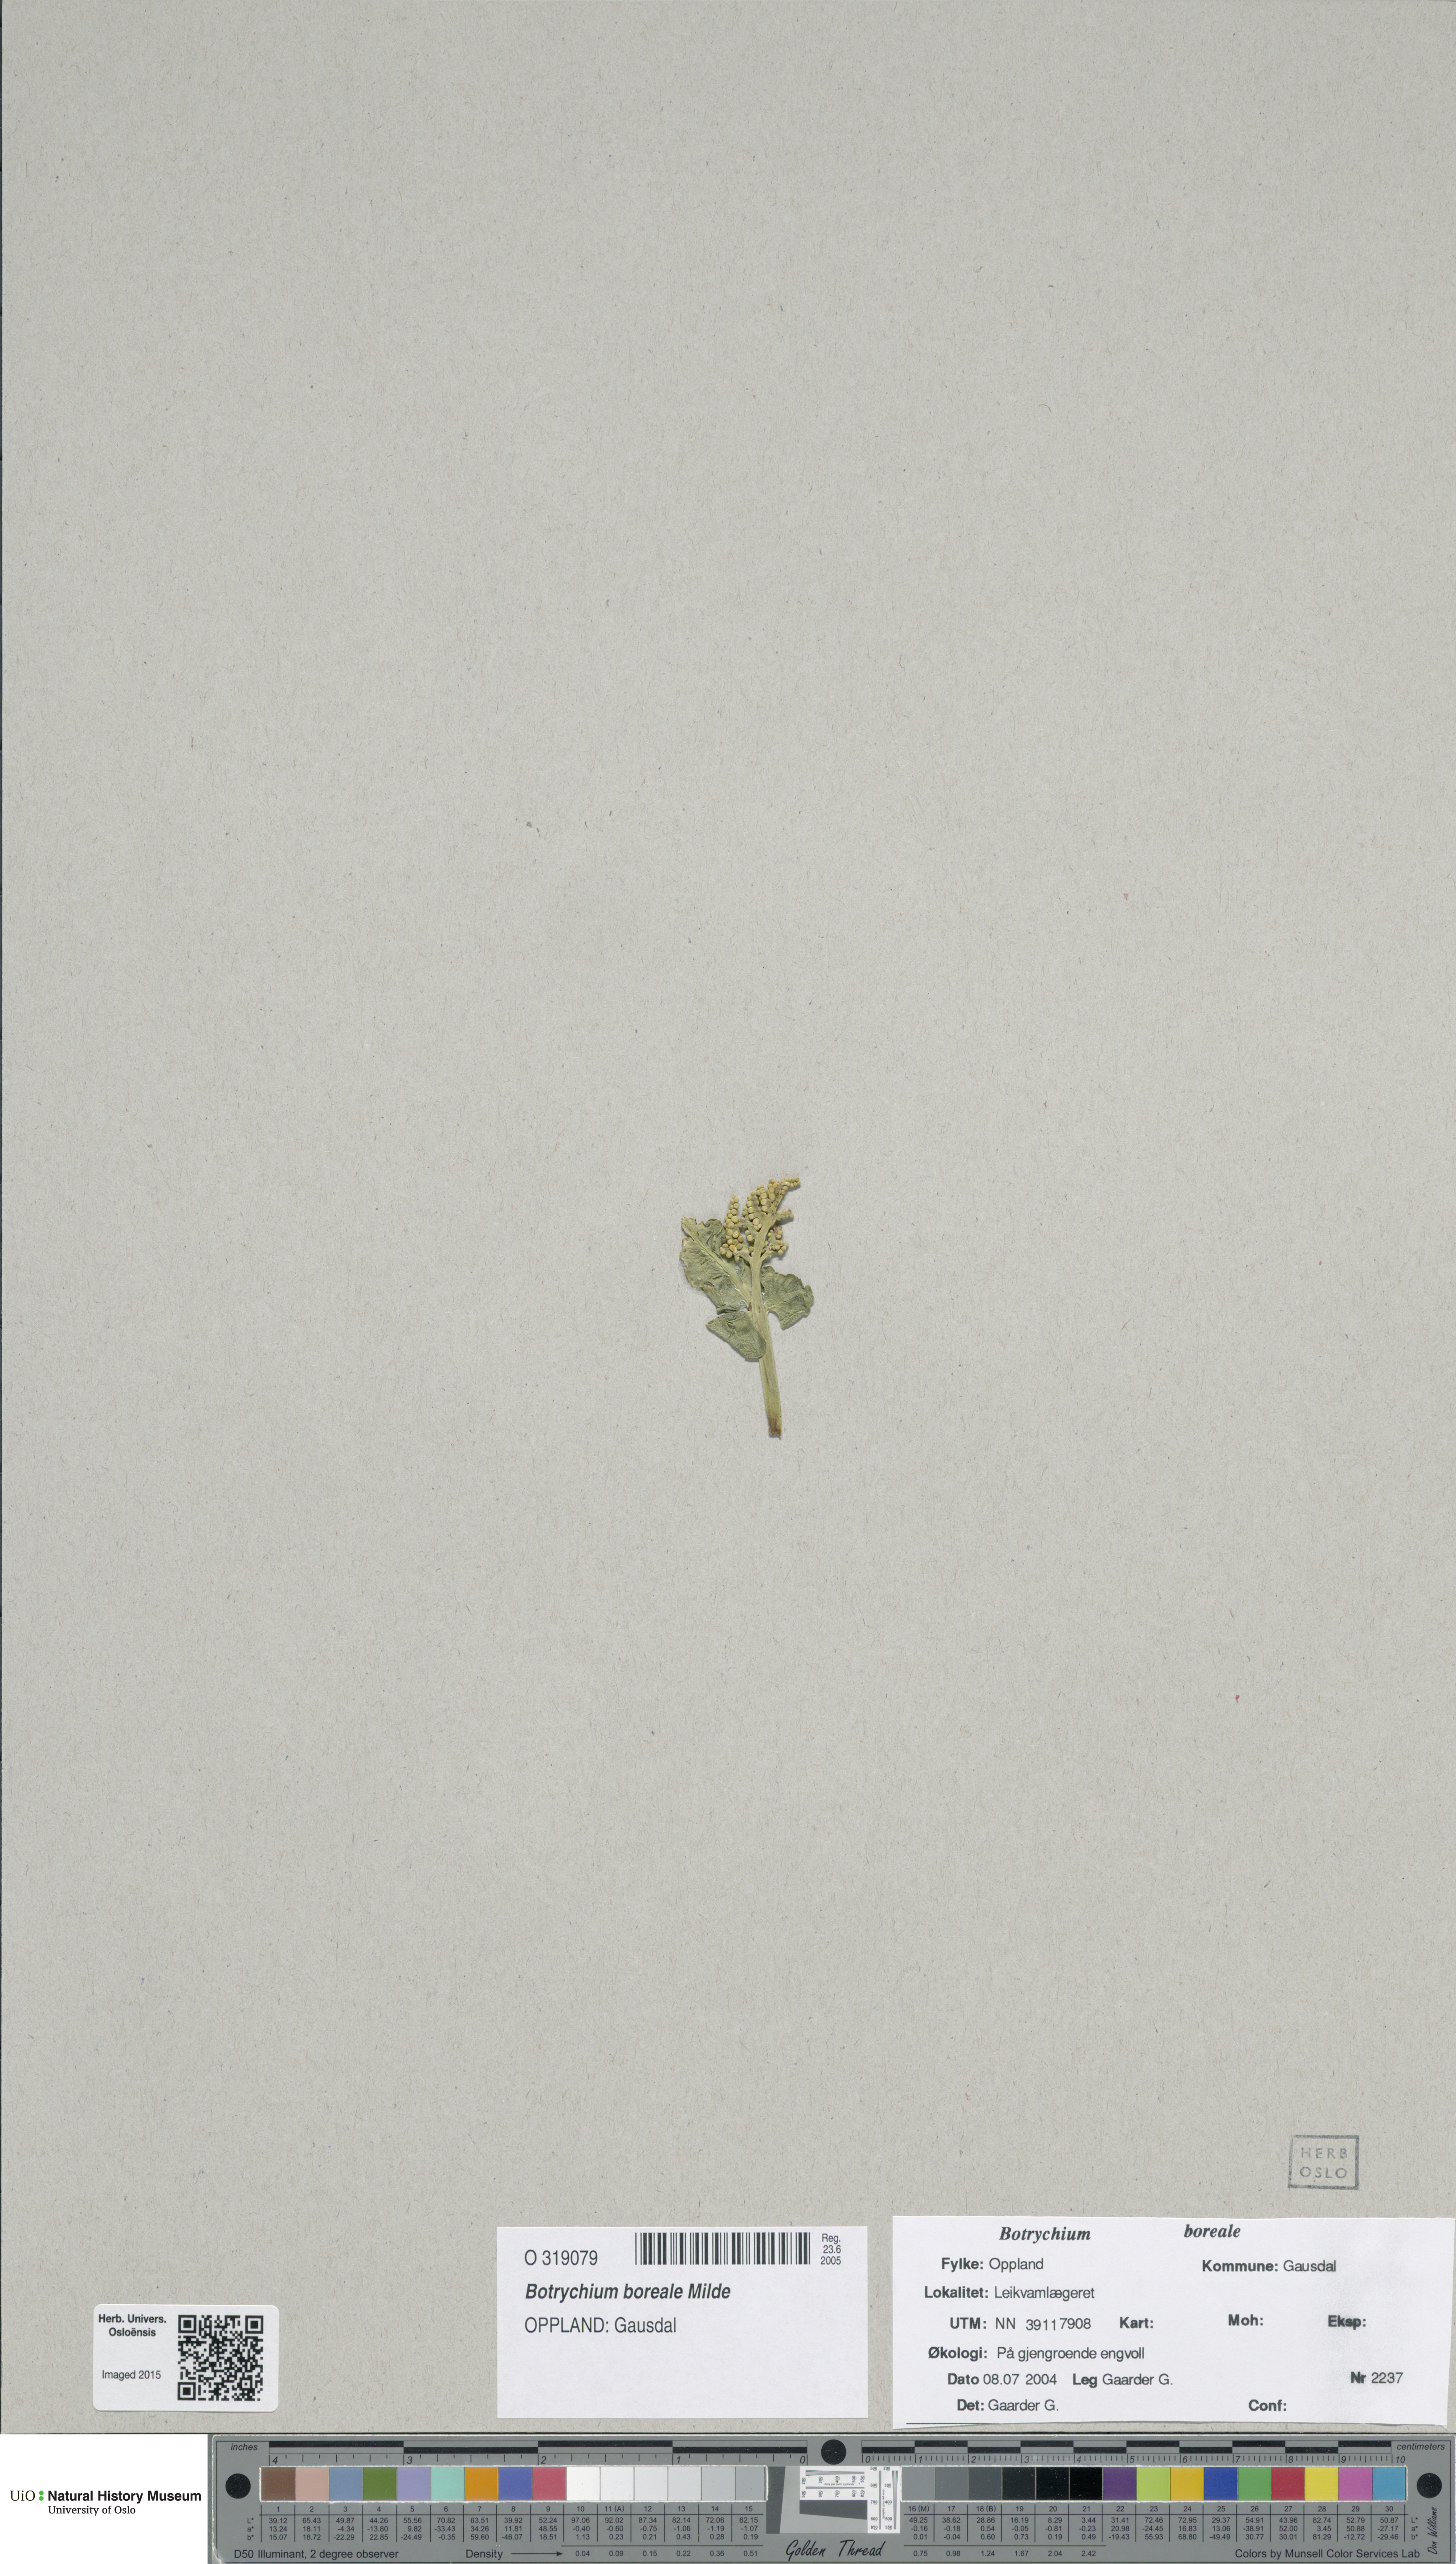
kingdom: Plantae
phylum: Tracheophyta
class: Polypodiopsida
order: Ophioglossales
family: Ophioglossaceae
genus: Botrychium
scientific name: Botrychium boreale
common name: Boreal moonwort
